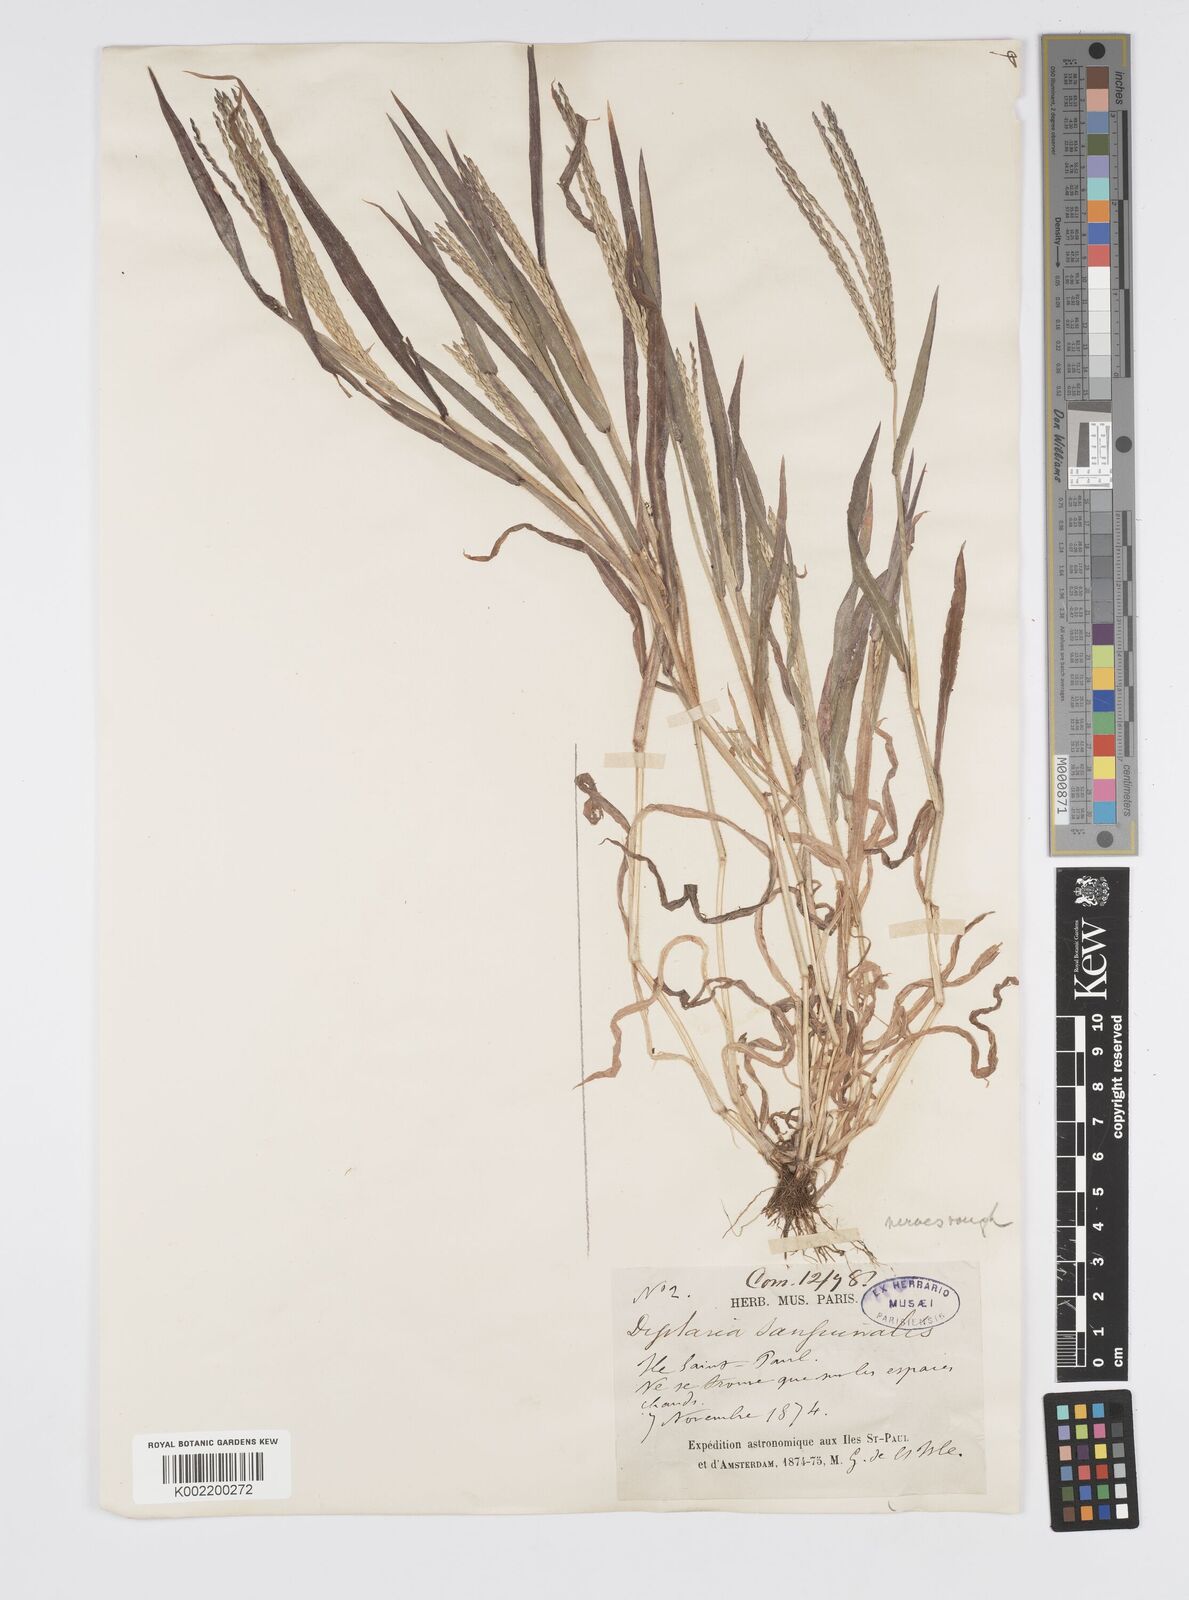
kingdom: Plantae
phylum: Tracheophyta
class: Liliopsida
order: Poales
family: Poaceae
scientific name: Poaceae
